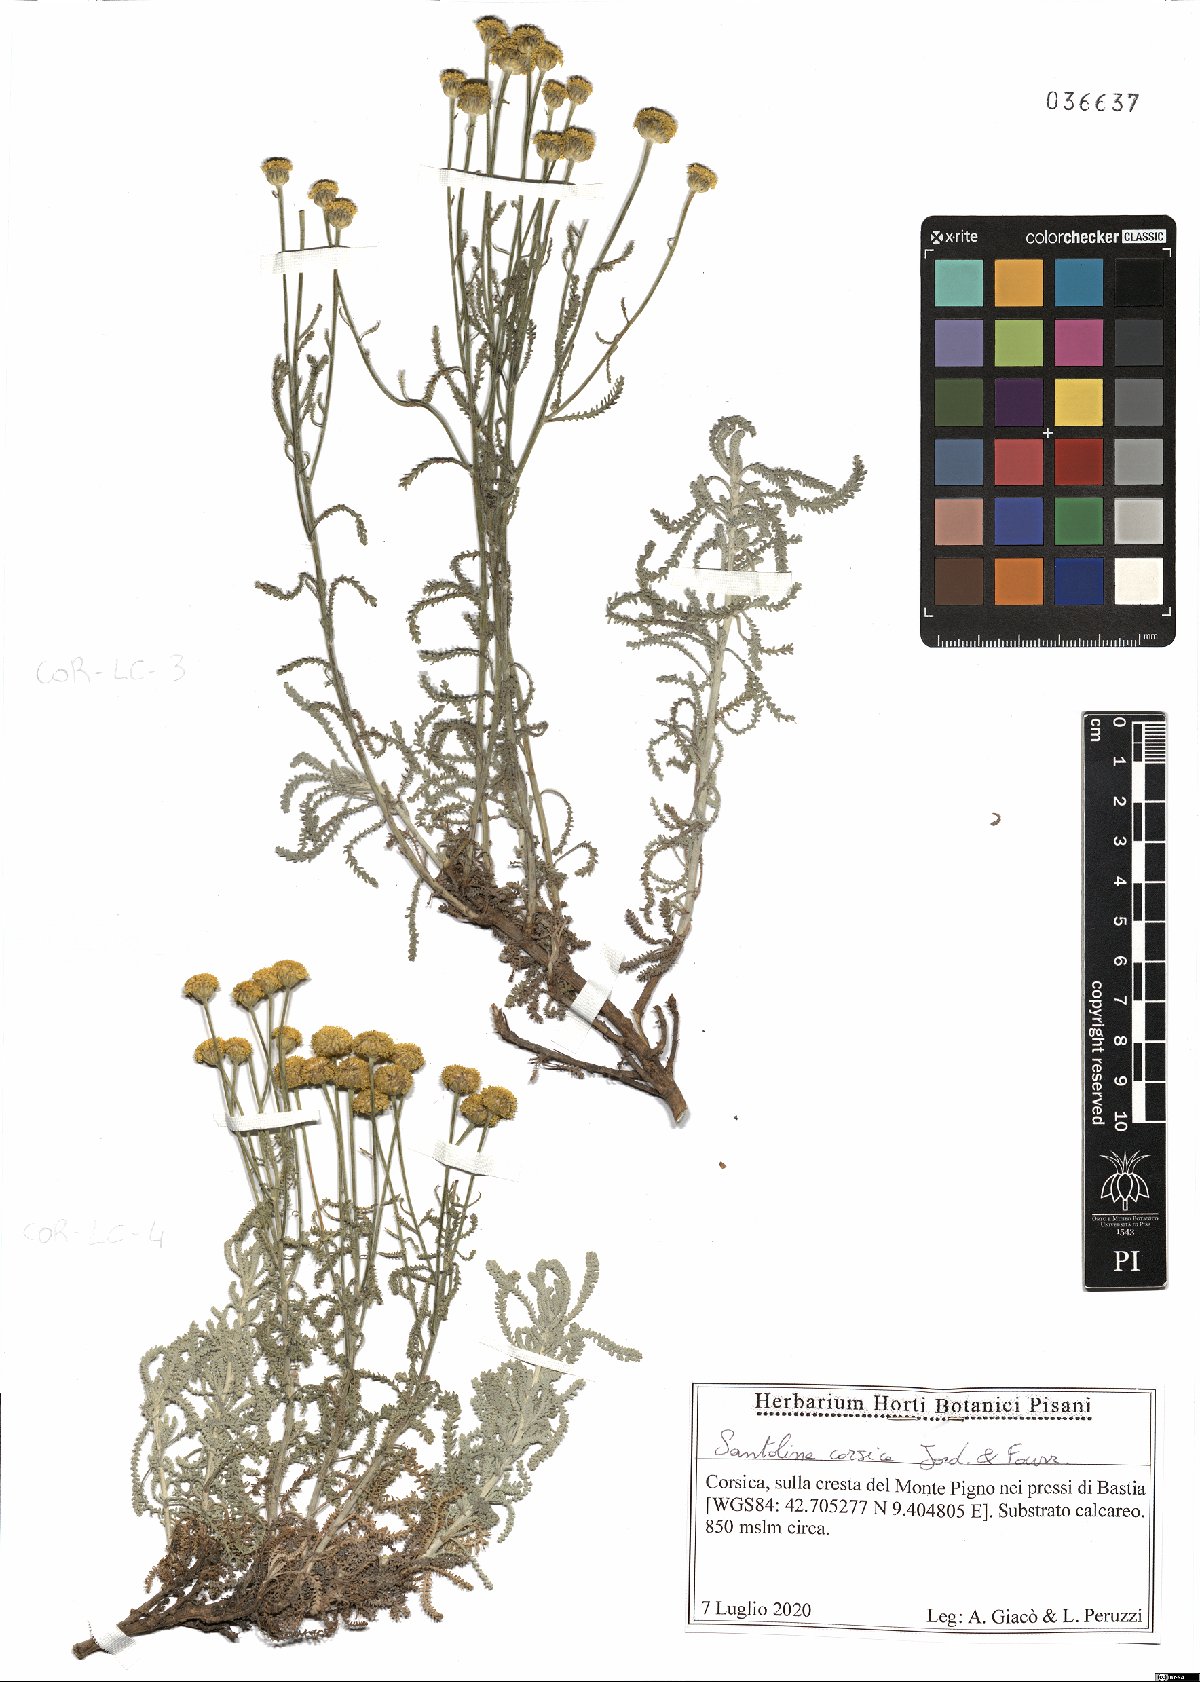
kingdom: Plantae
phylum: Tracheophyta
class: Magnoliopsida
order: Asterales
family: Asteraceae
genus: Santolina
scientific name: Santolina corsica
